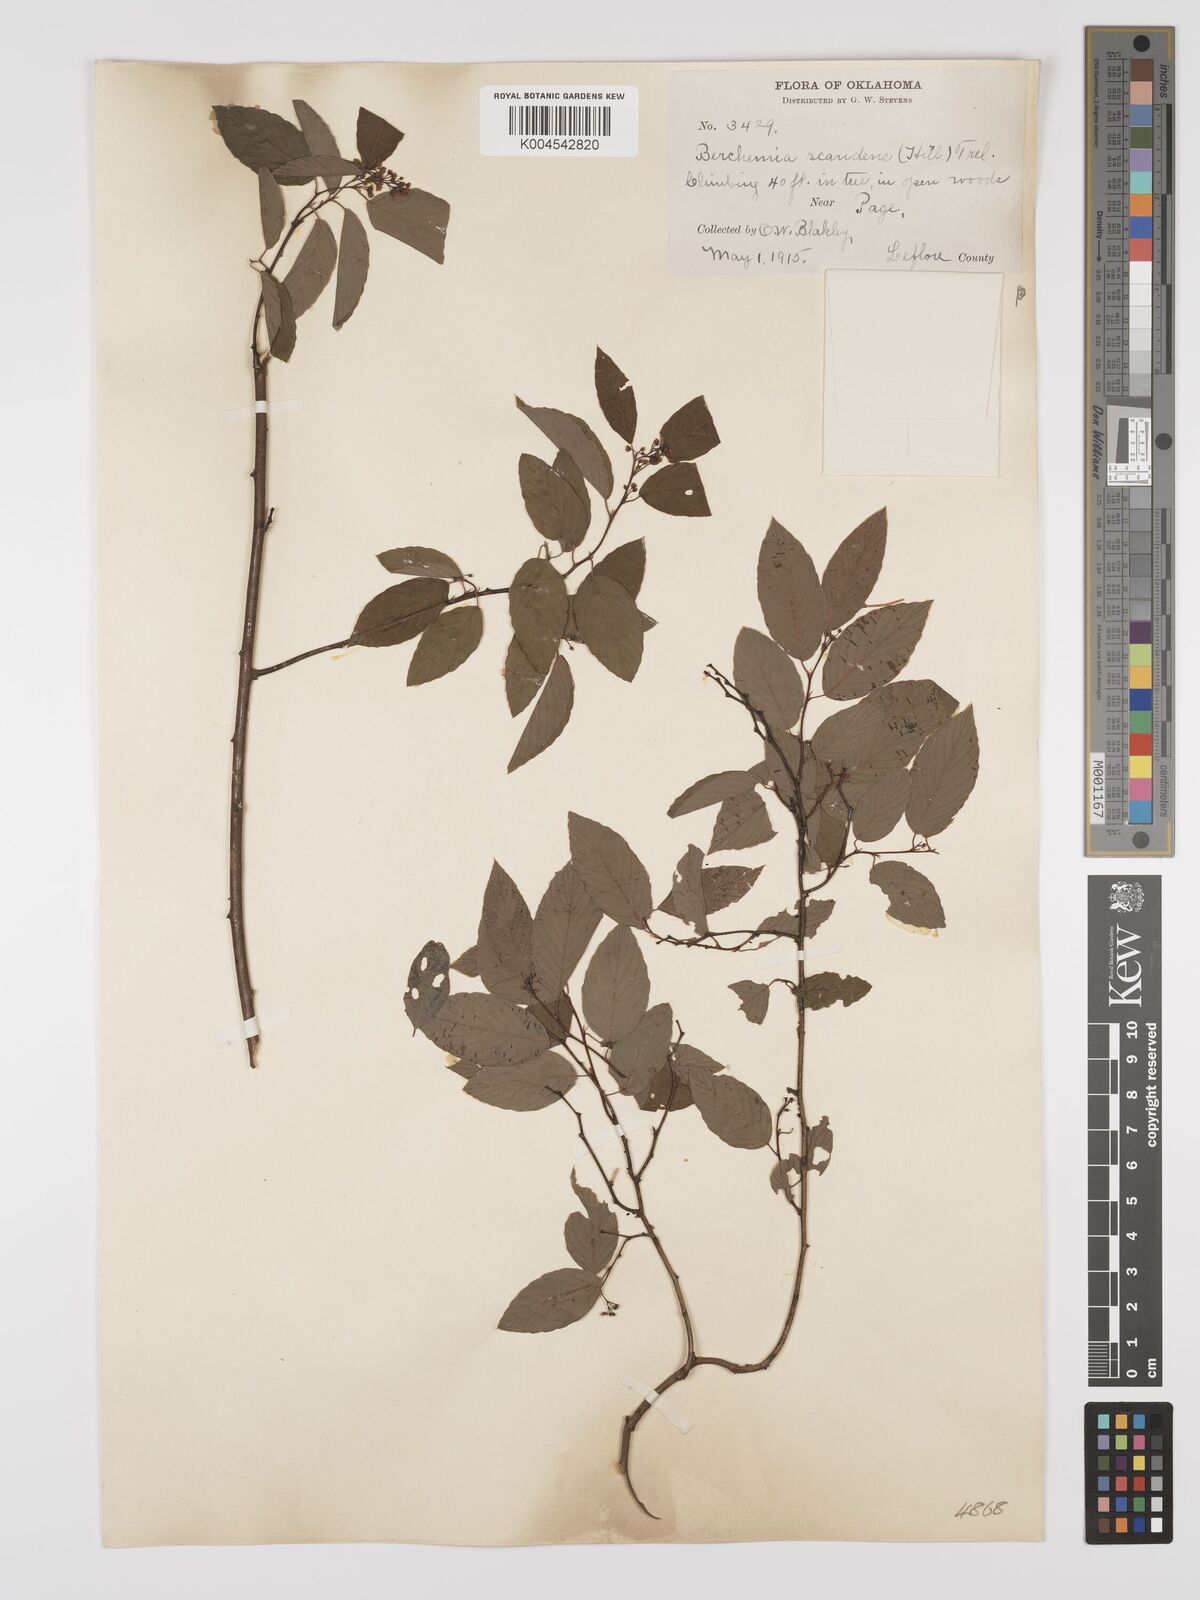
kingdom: Plantae
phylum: Tracheophyta
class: Magnoliopsida
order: Rosales
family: Rhamnaceae
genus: Berchemia
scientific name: Berchemia scandens
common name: Supplejack
